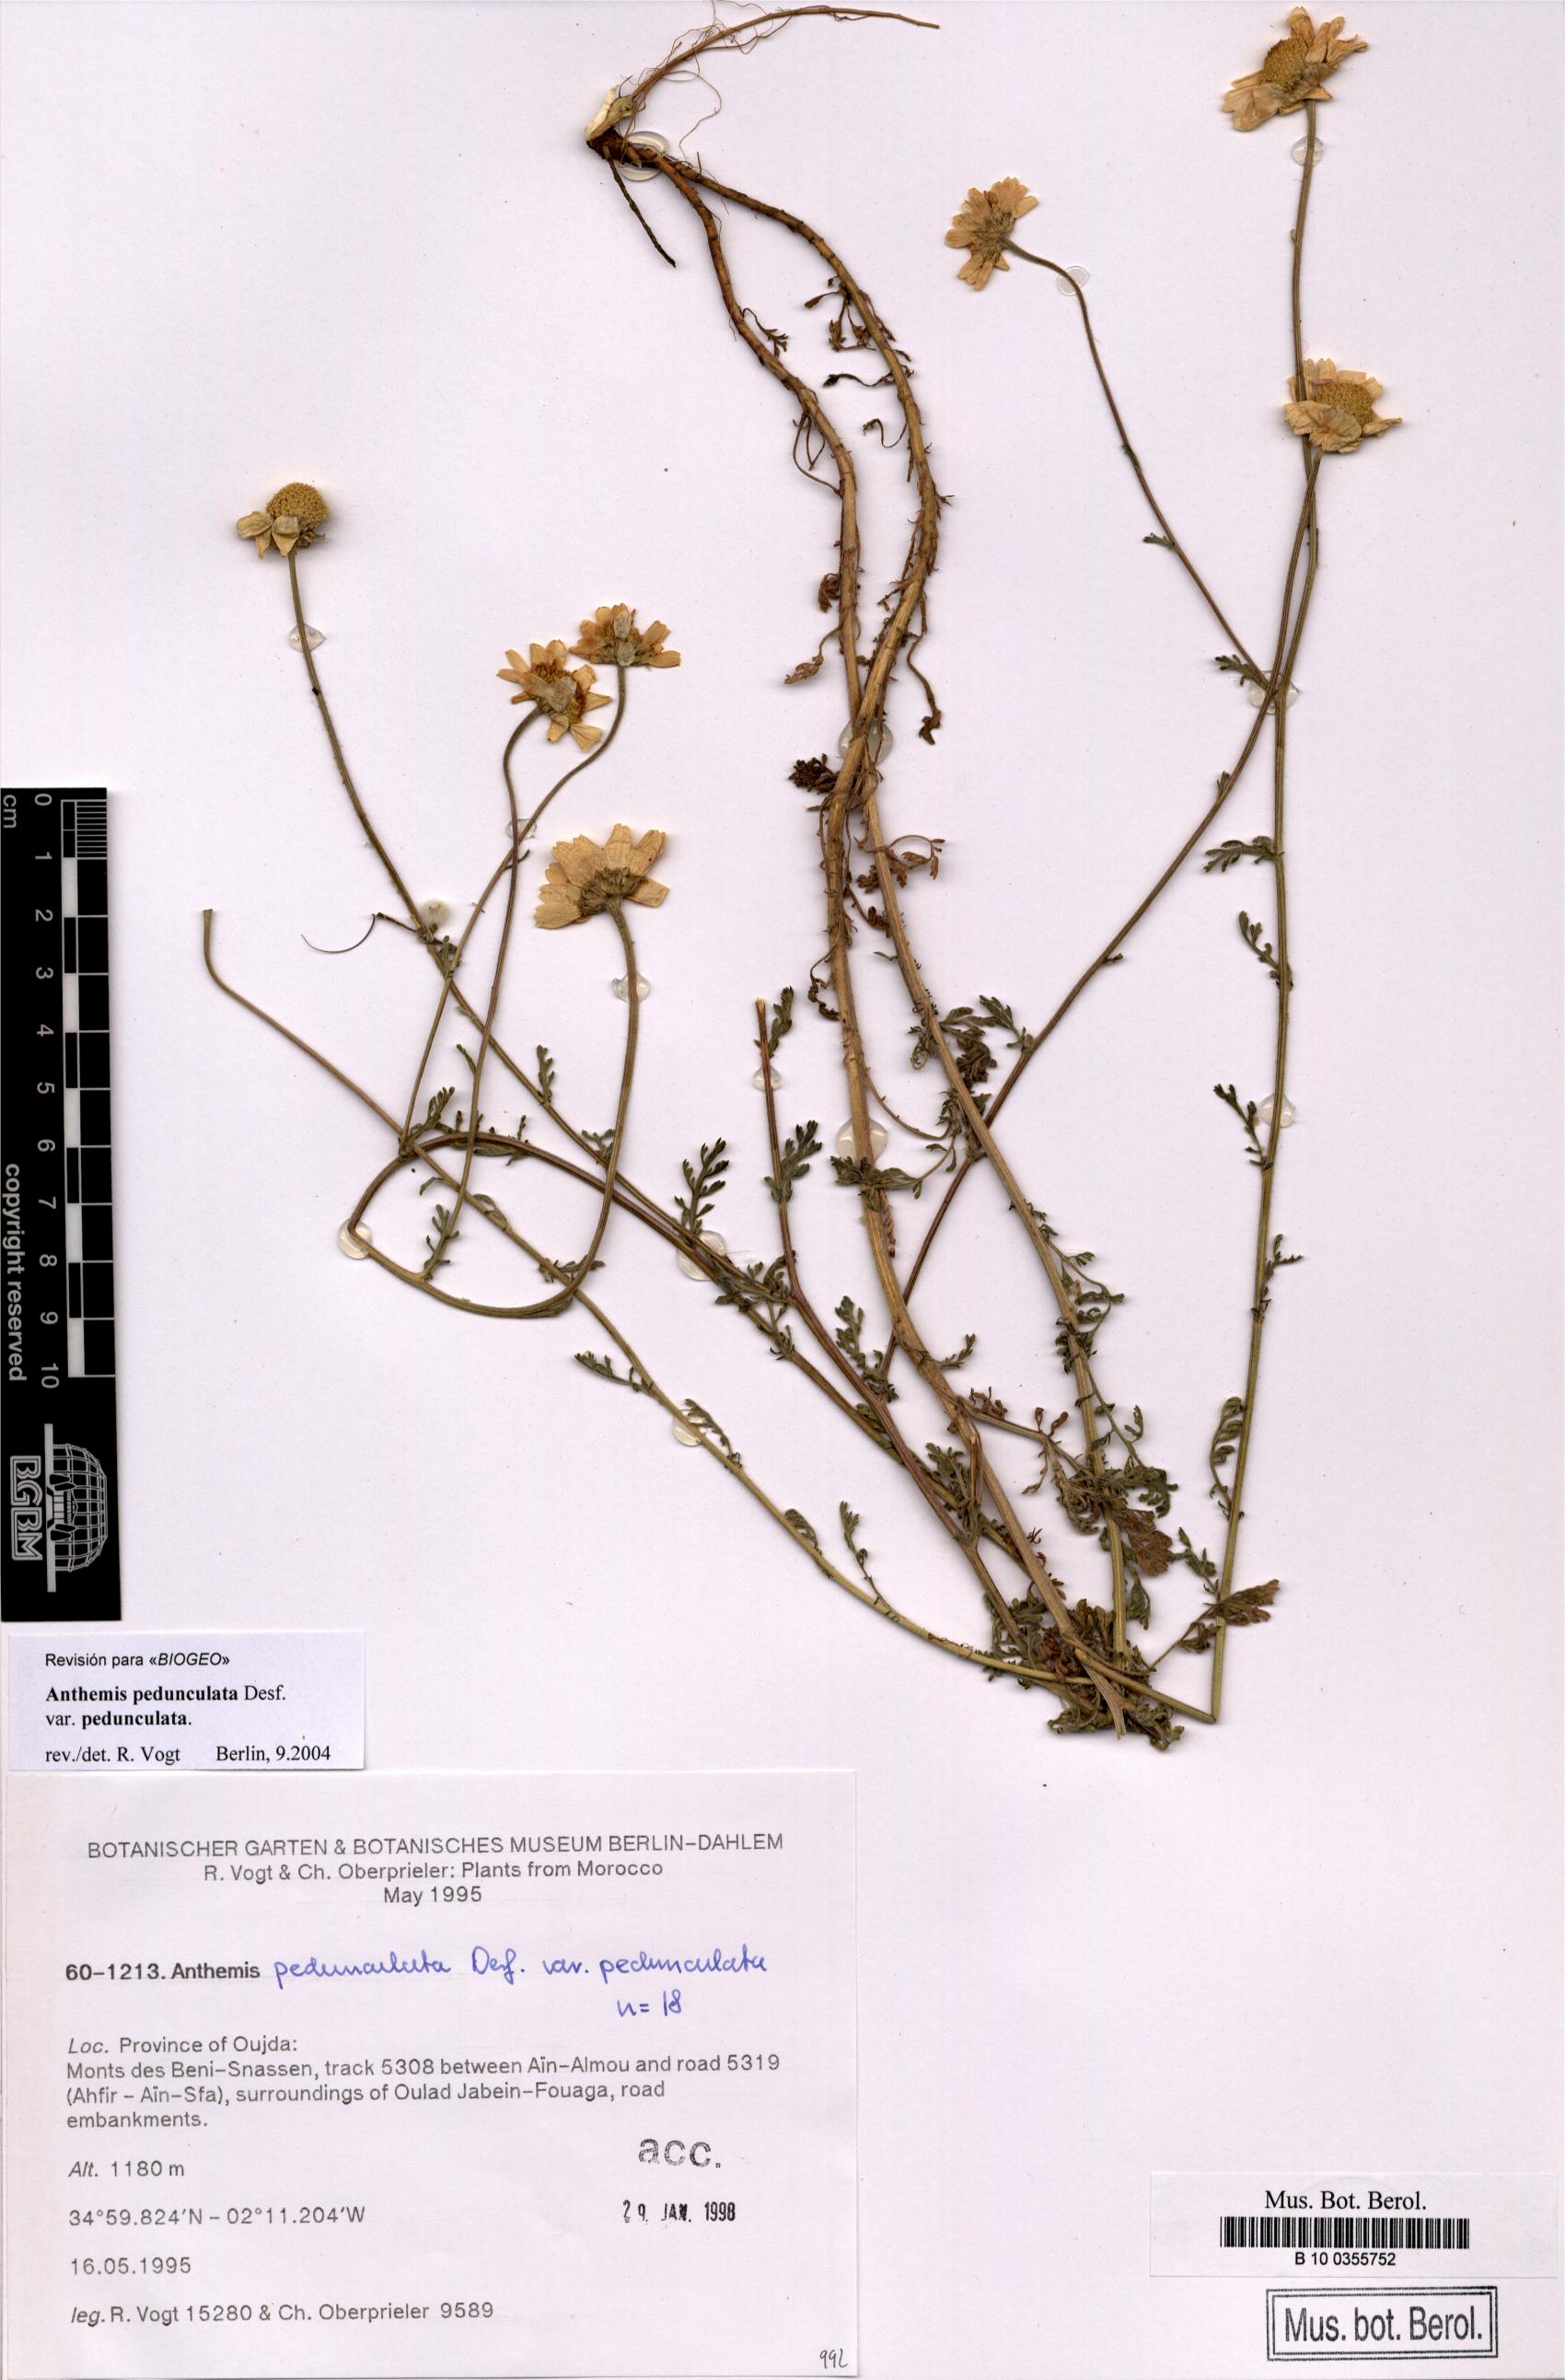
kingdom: Plantae
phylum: Tracheophyta
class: Magnoliopsida
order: Asterales
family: Asteraceae
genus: Anthemis
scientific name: Anthemis pedunculata
